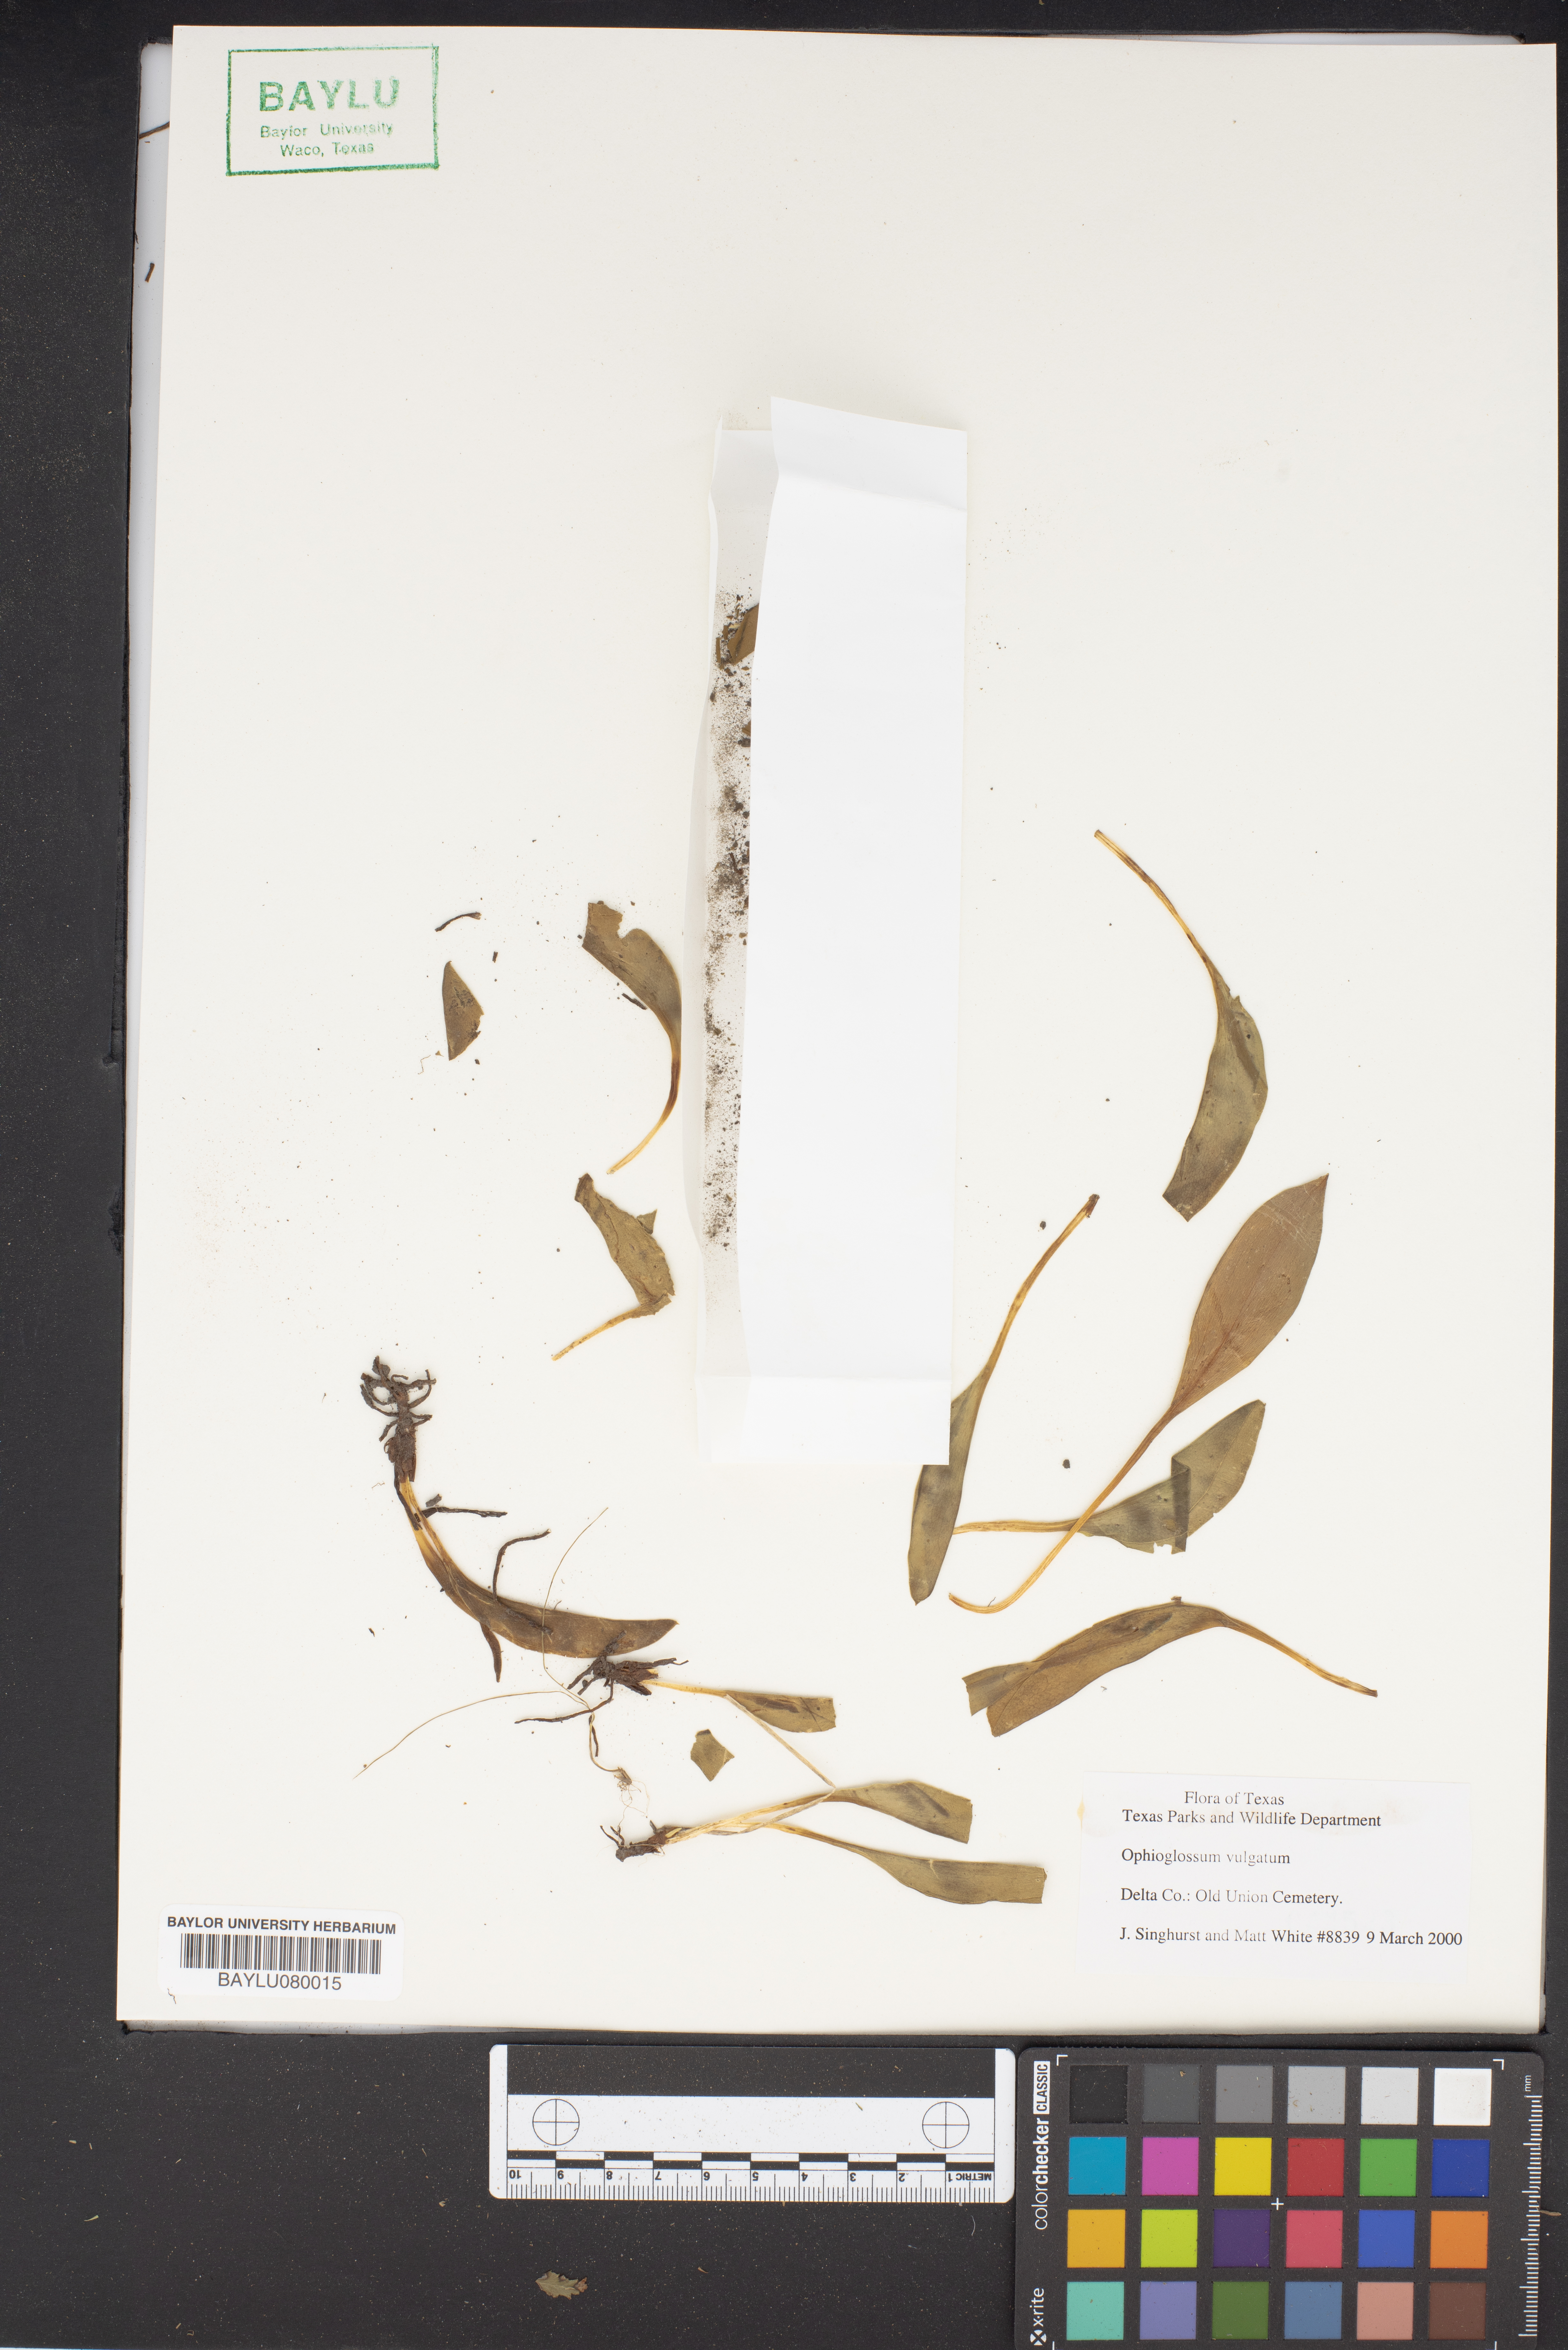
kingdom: Plantae
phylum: Tracheophyta
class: Polypodiopsida
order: Ophioglossales
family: Ophioglossaceae
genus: Ophioglossum
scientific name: Ophioglossum vulgatum
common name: Adder's-tongue
